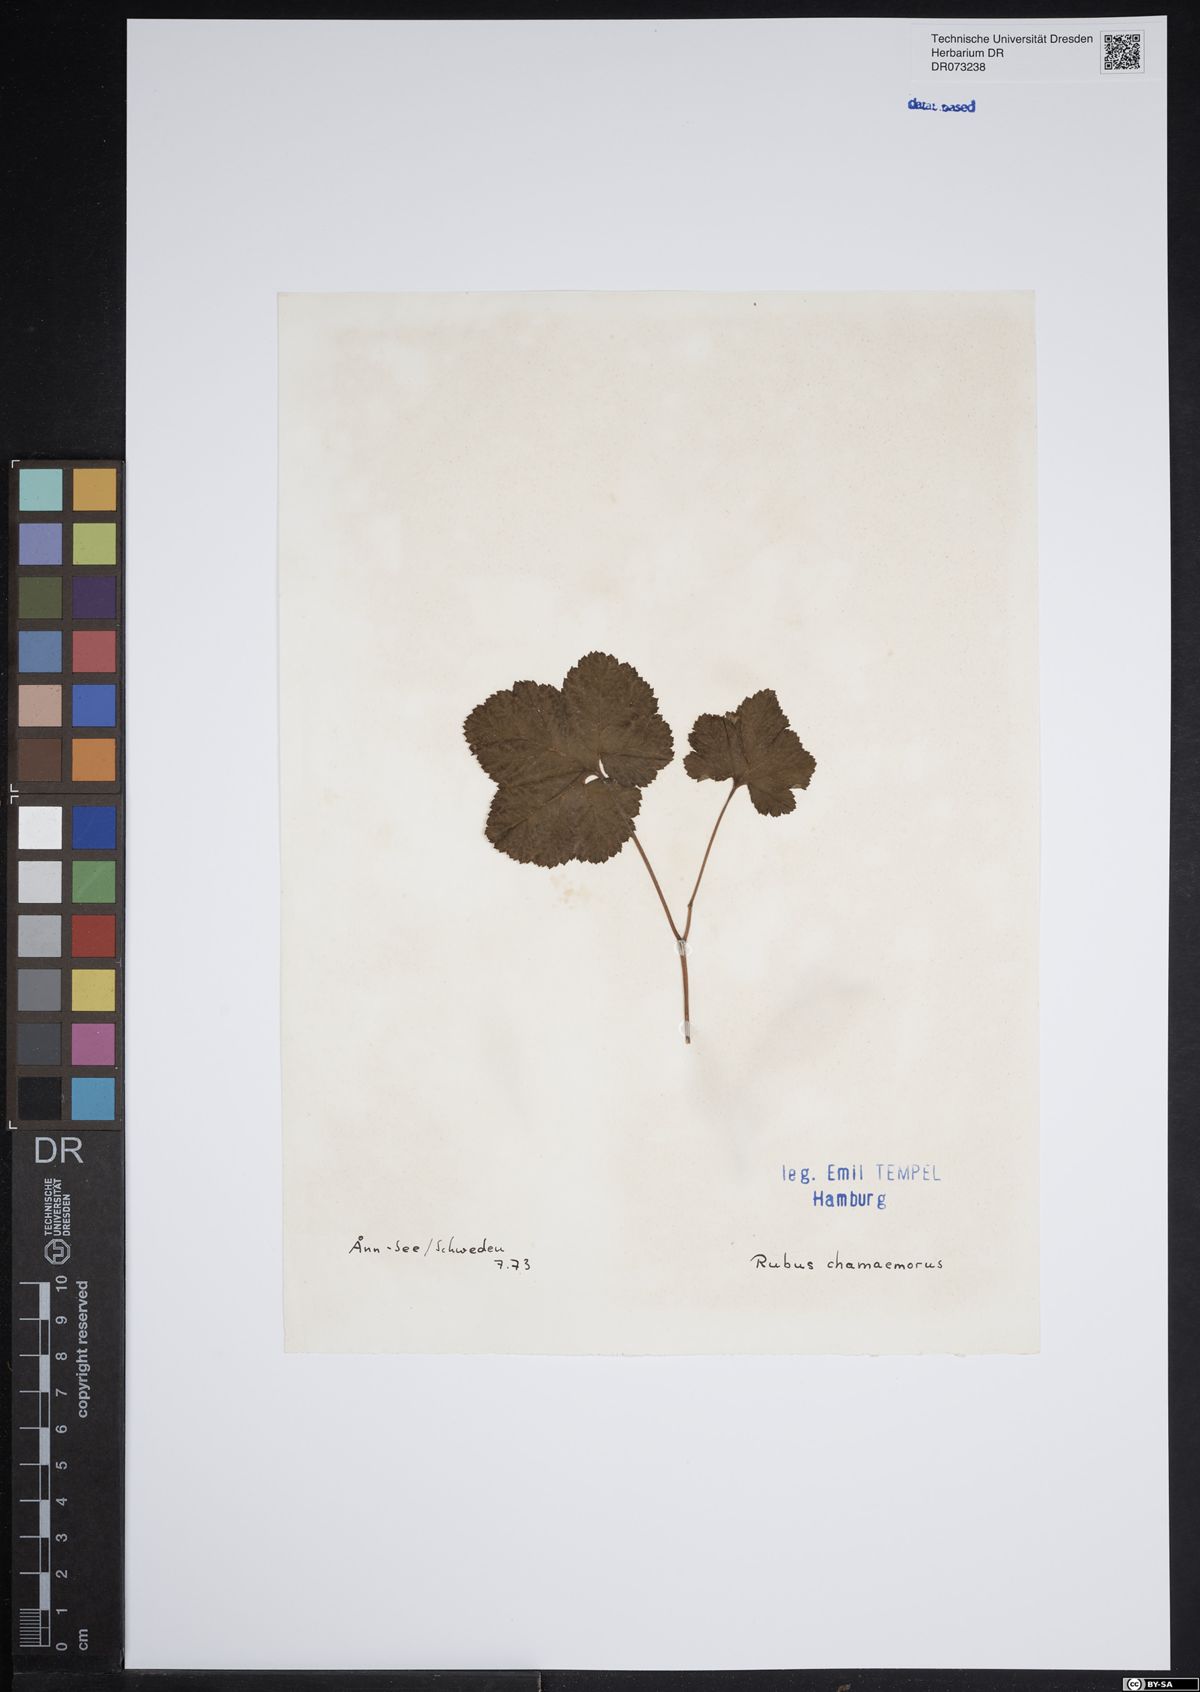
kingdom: Plantae
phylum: Tracheophyta
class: Magnoliopsida
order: Rosales
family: Rosaceae
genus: Rubus
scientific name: Rubus chamaemorus
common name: Cloudberry
